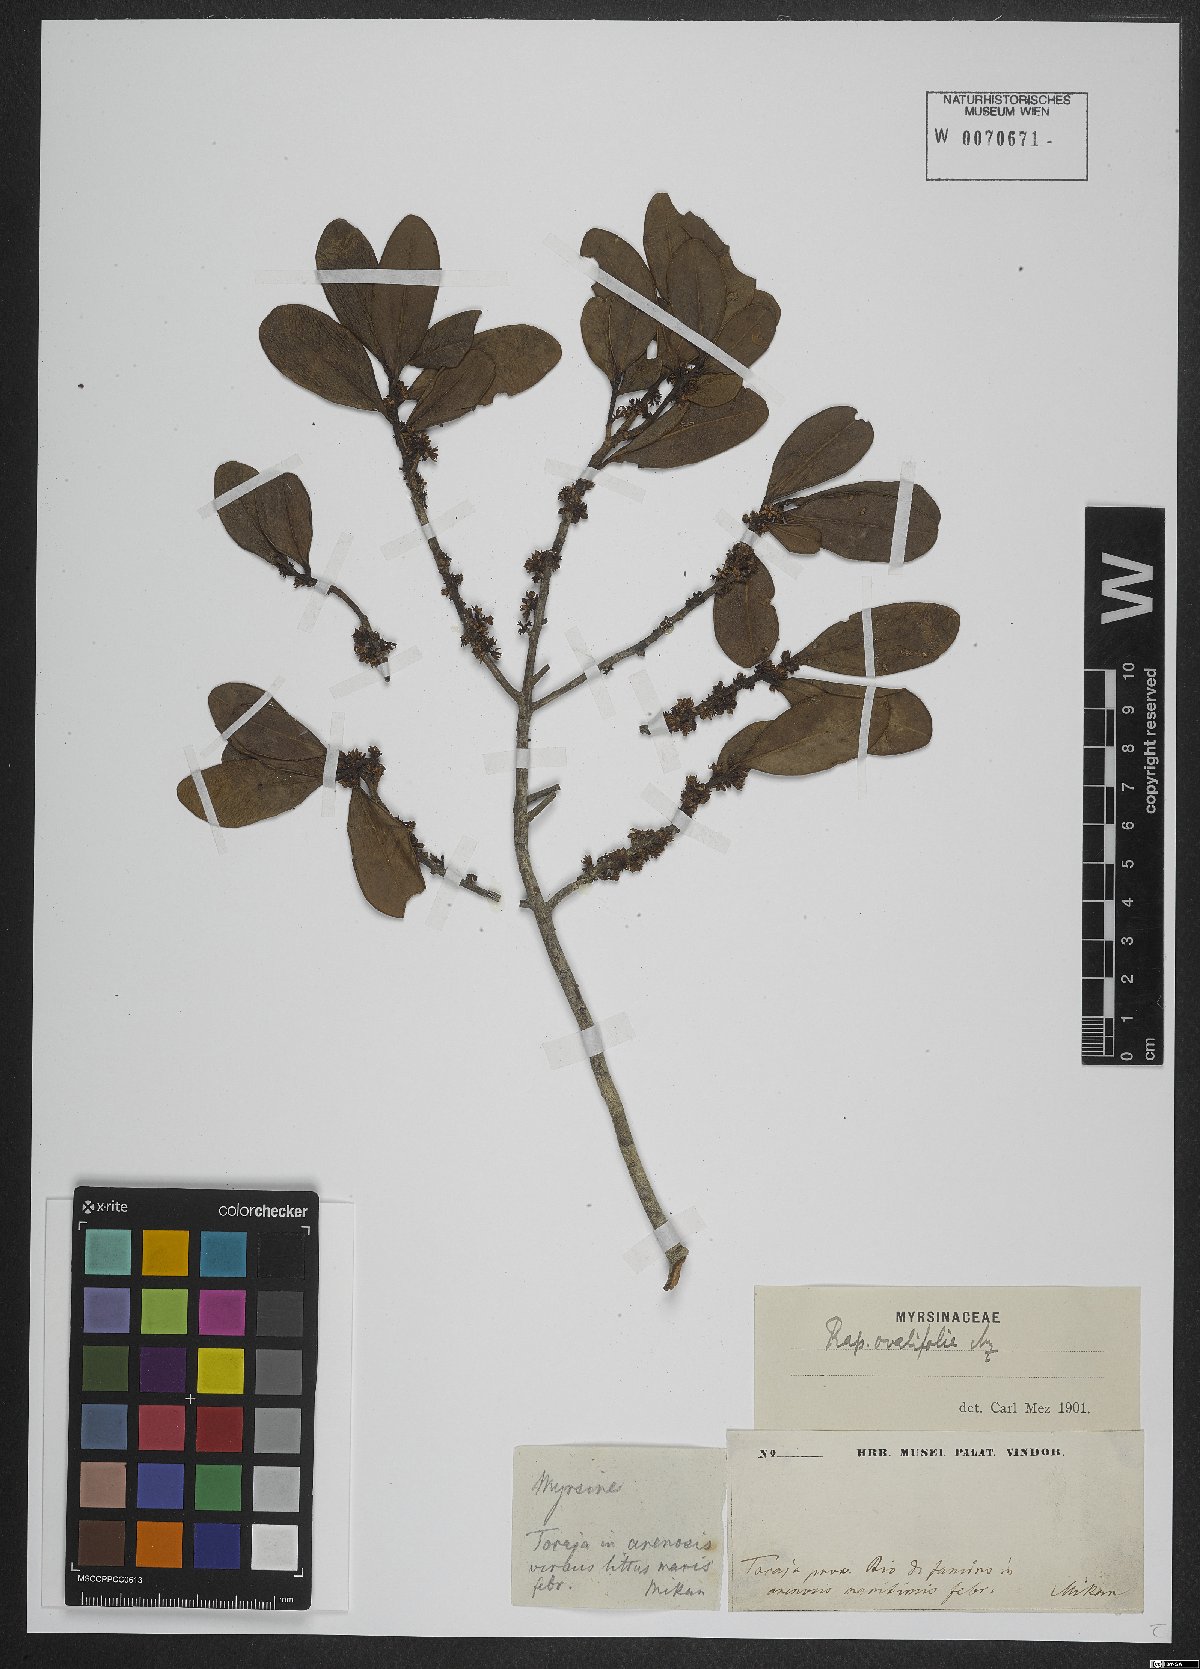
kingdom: Plantae
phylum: Tracheophyta
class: Magnoliopsida
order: Ericales
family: Primulaceae
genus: Myrsine
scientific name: Myrsine miquelii
